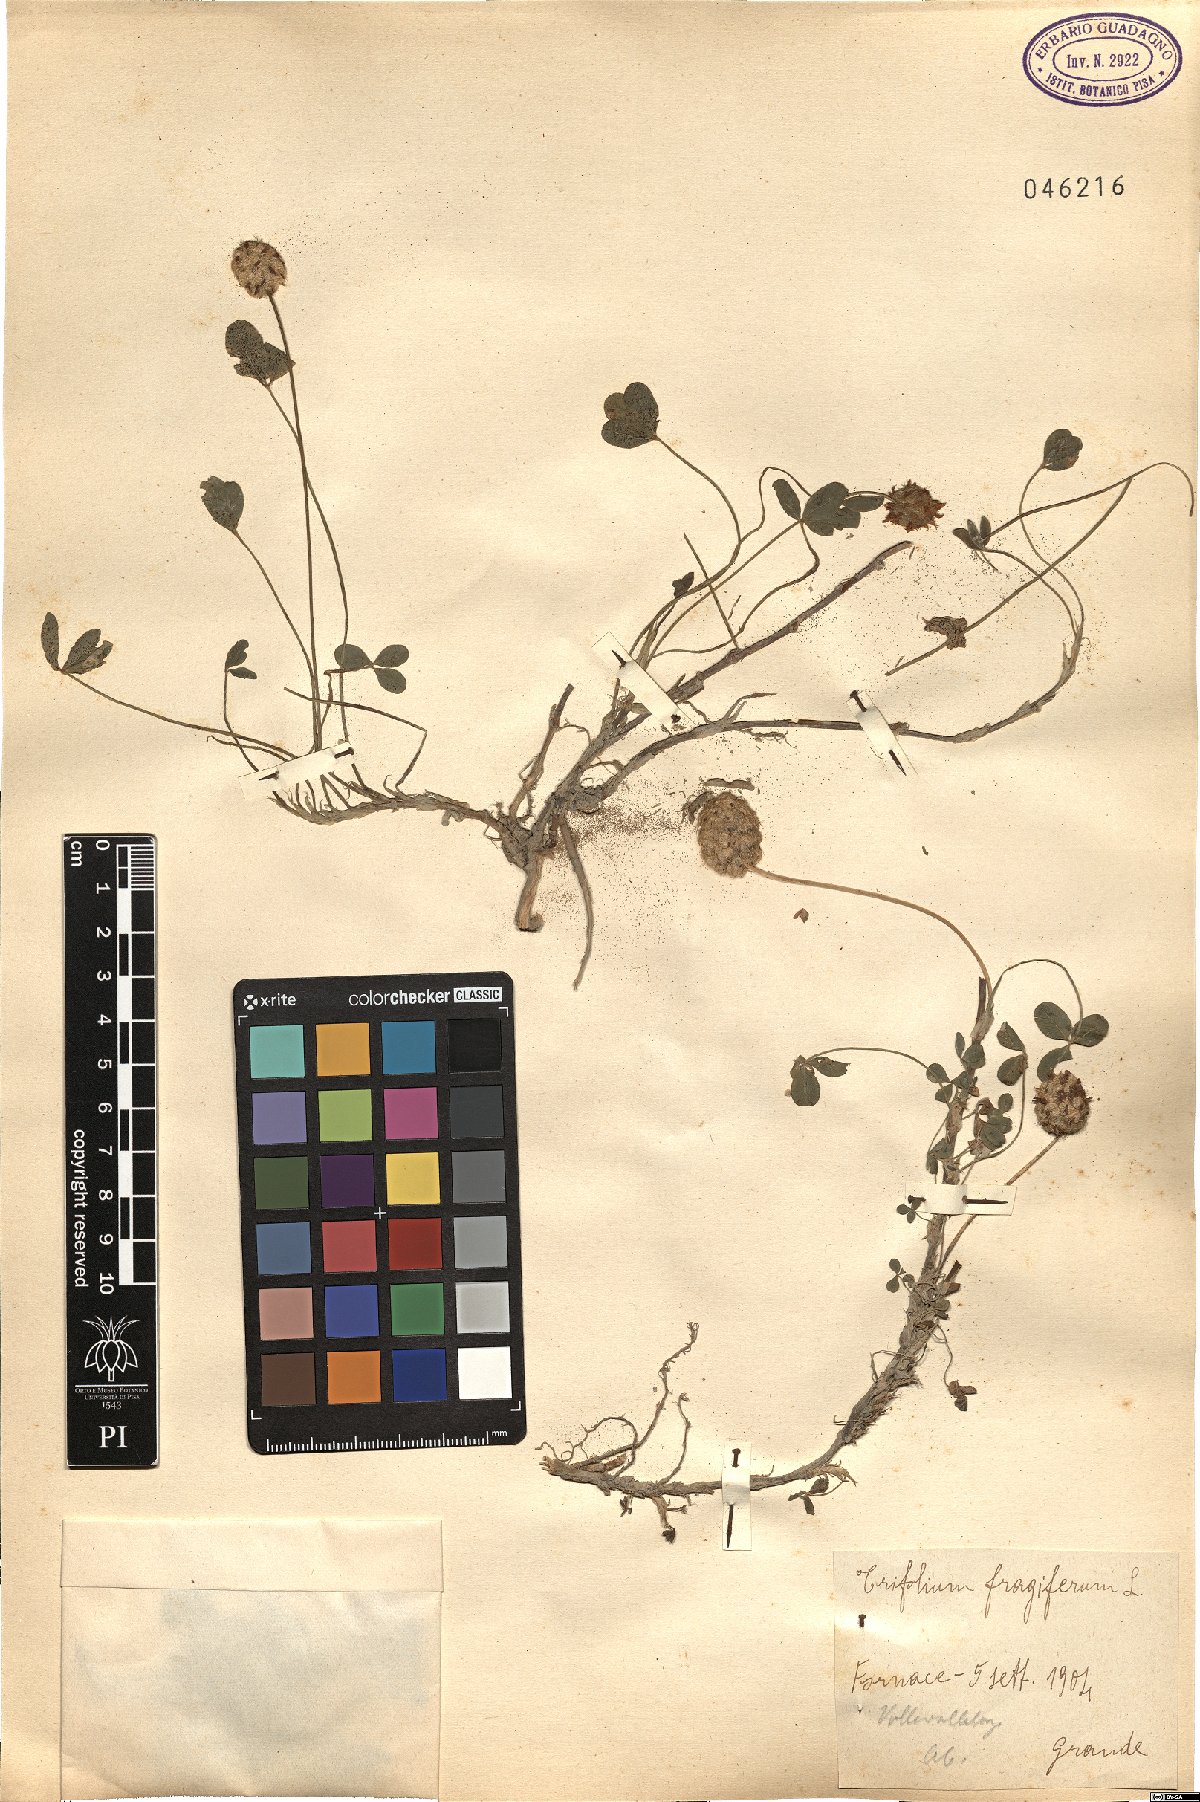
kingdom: Plantae
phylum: Tracheophyta
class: Magnoliopsida
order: Fabales
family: Fabaceae
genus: Trifolium
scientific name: Trifolium fragiferum
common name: Strawberry clover
